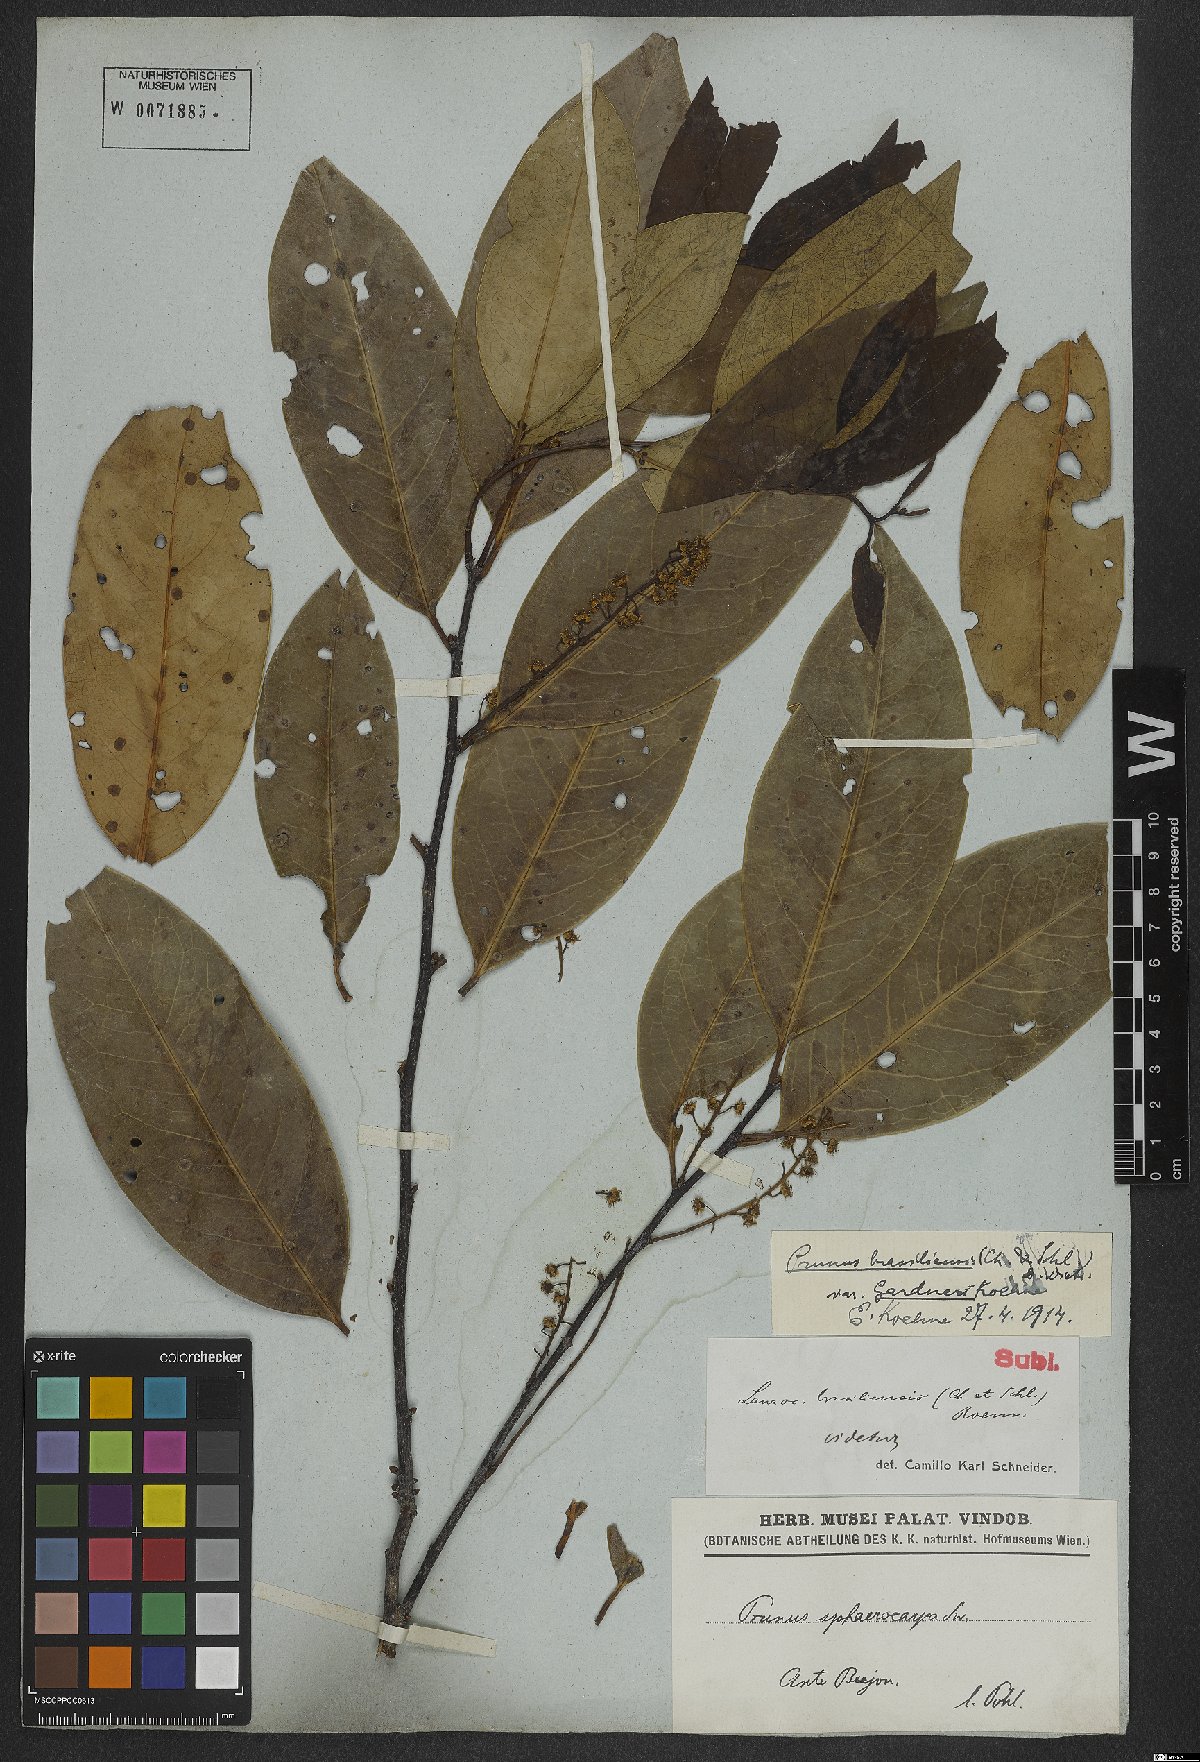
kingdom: Plantae
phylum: Tracheophyta
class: Magnoliopsida
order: Rosales
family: Rosaceae
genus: Prunus
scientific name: Prunus brasiliensis
